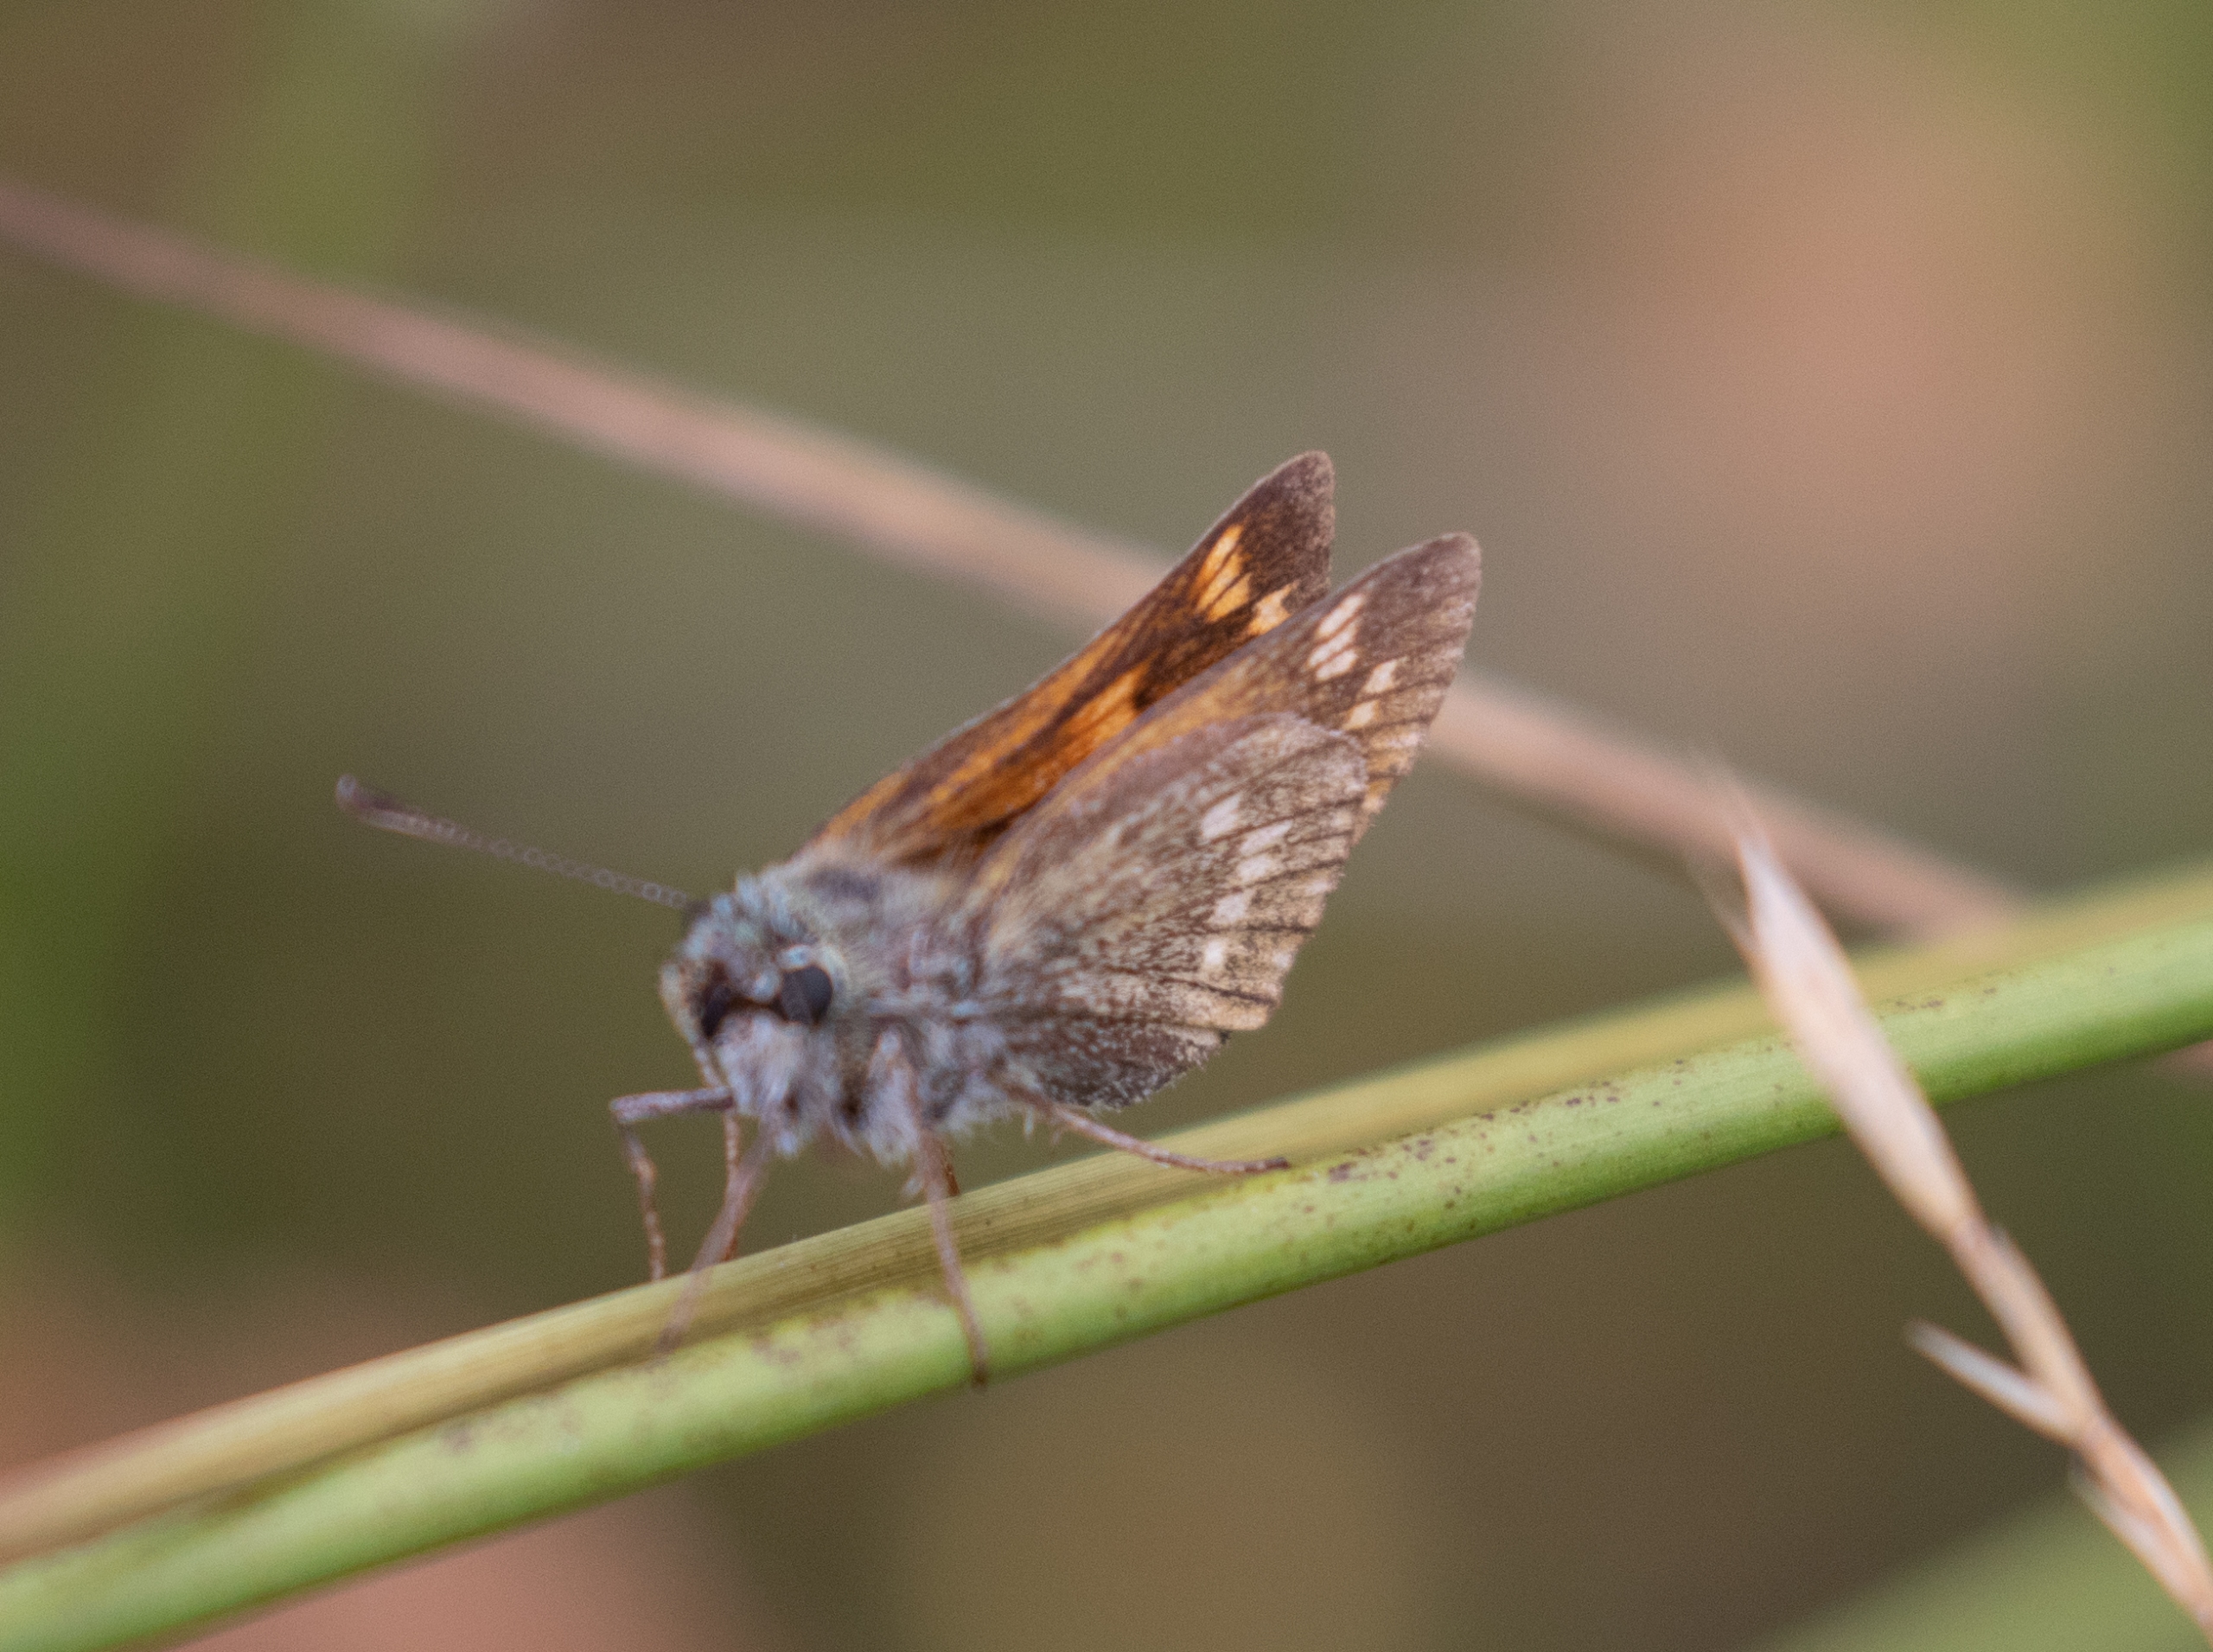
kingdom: Animalia
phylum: Arthropoda
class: Insecta
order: Lepidoptera
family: Hesperiidae
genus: Ochlodes
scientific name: Ochlodes venata
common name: Stor bredpande
